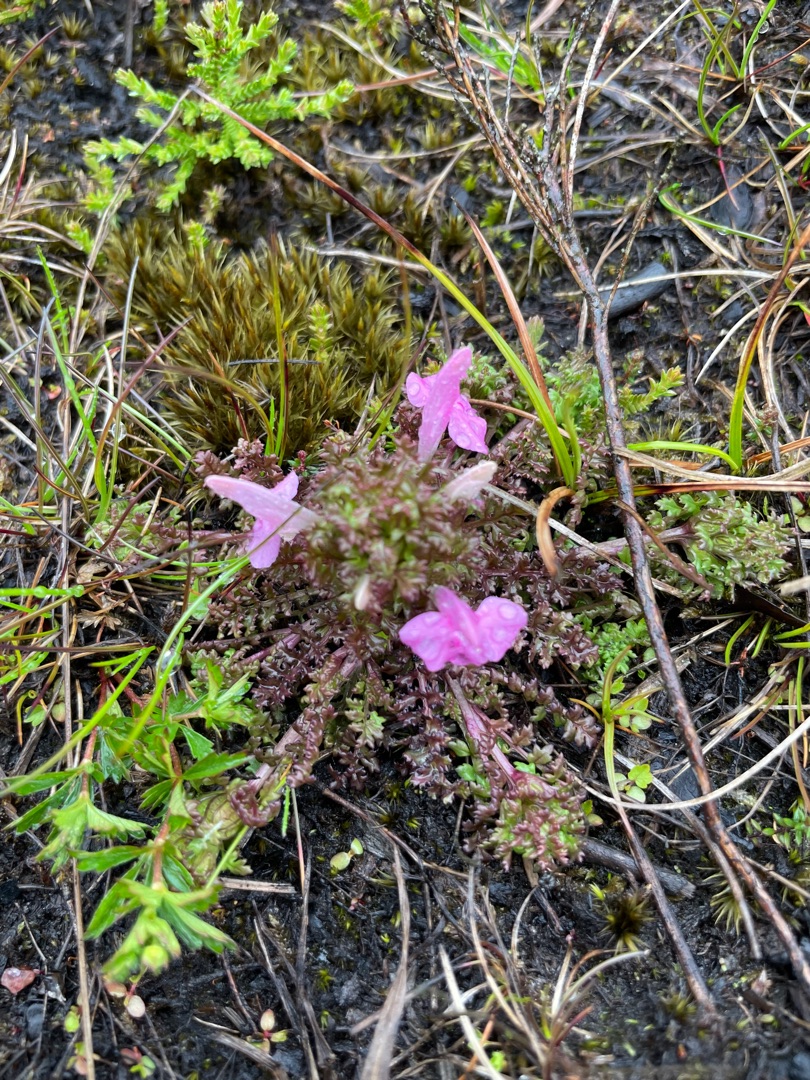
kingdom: Plantae
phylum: Tracheophyta
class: Magnoliopsida
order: Lamiales
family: Orobanchaceae
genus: Pedicularis
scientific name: Pedicularis sylvatica
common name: Mose-troldurt
